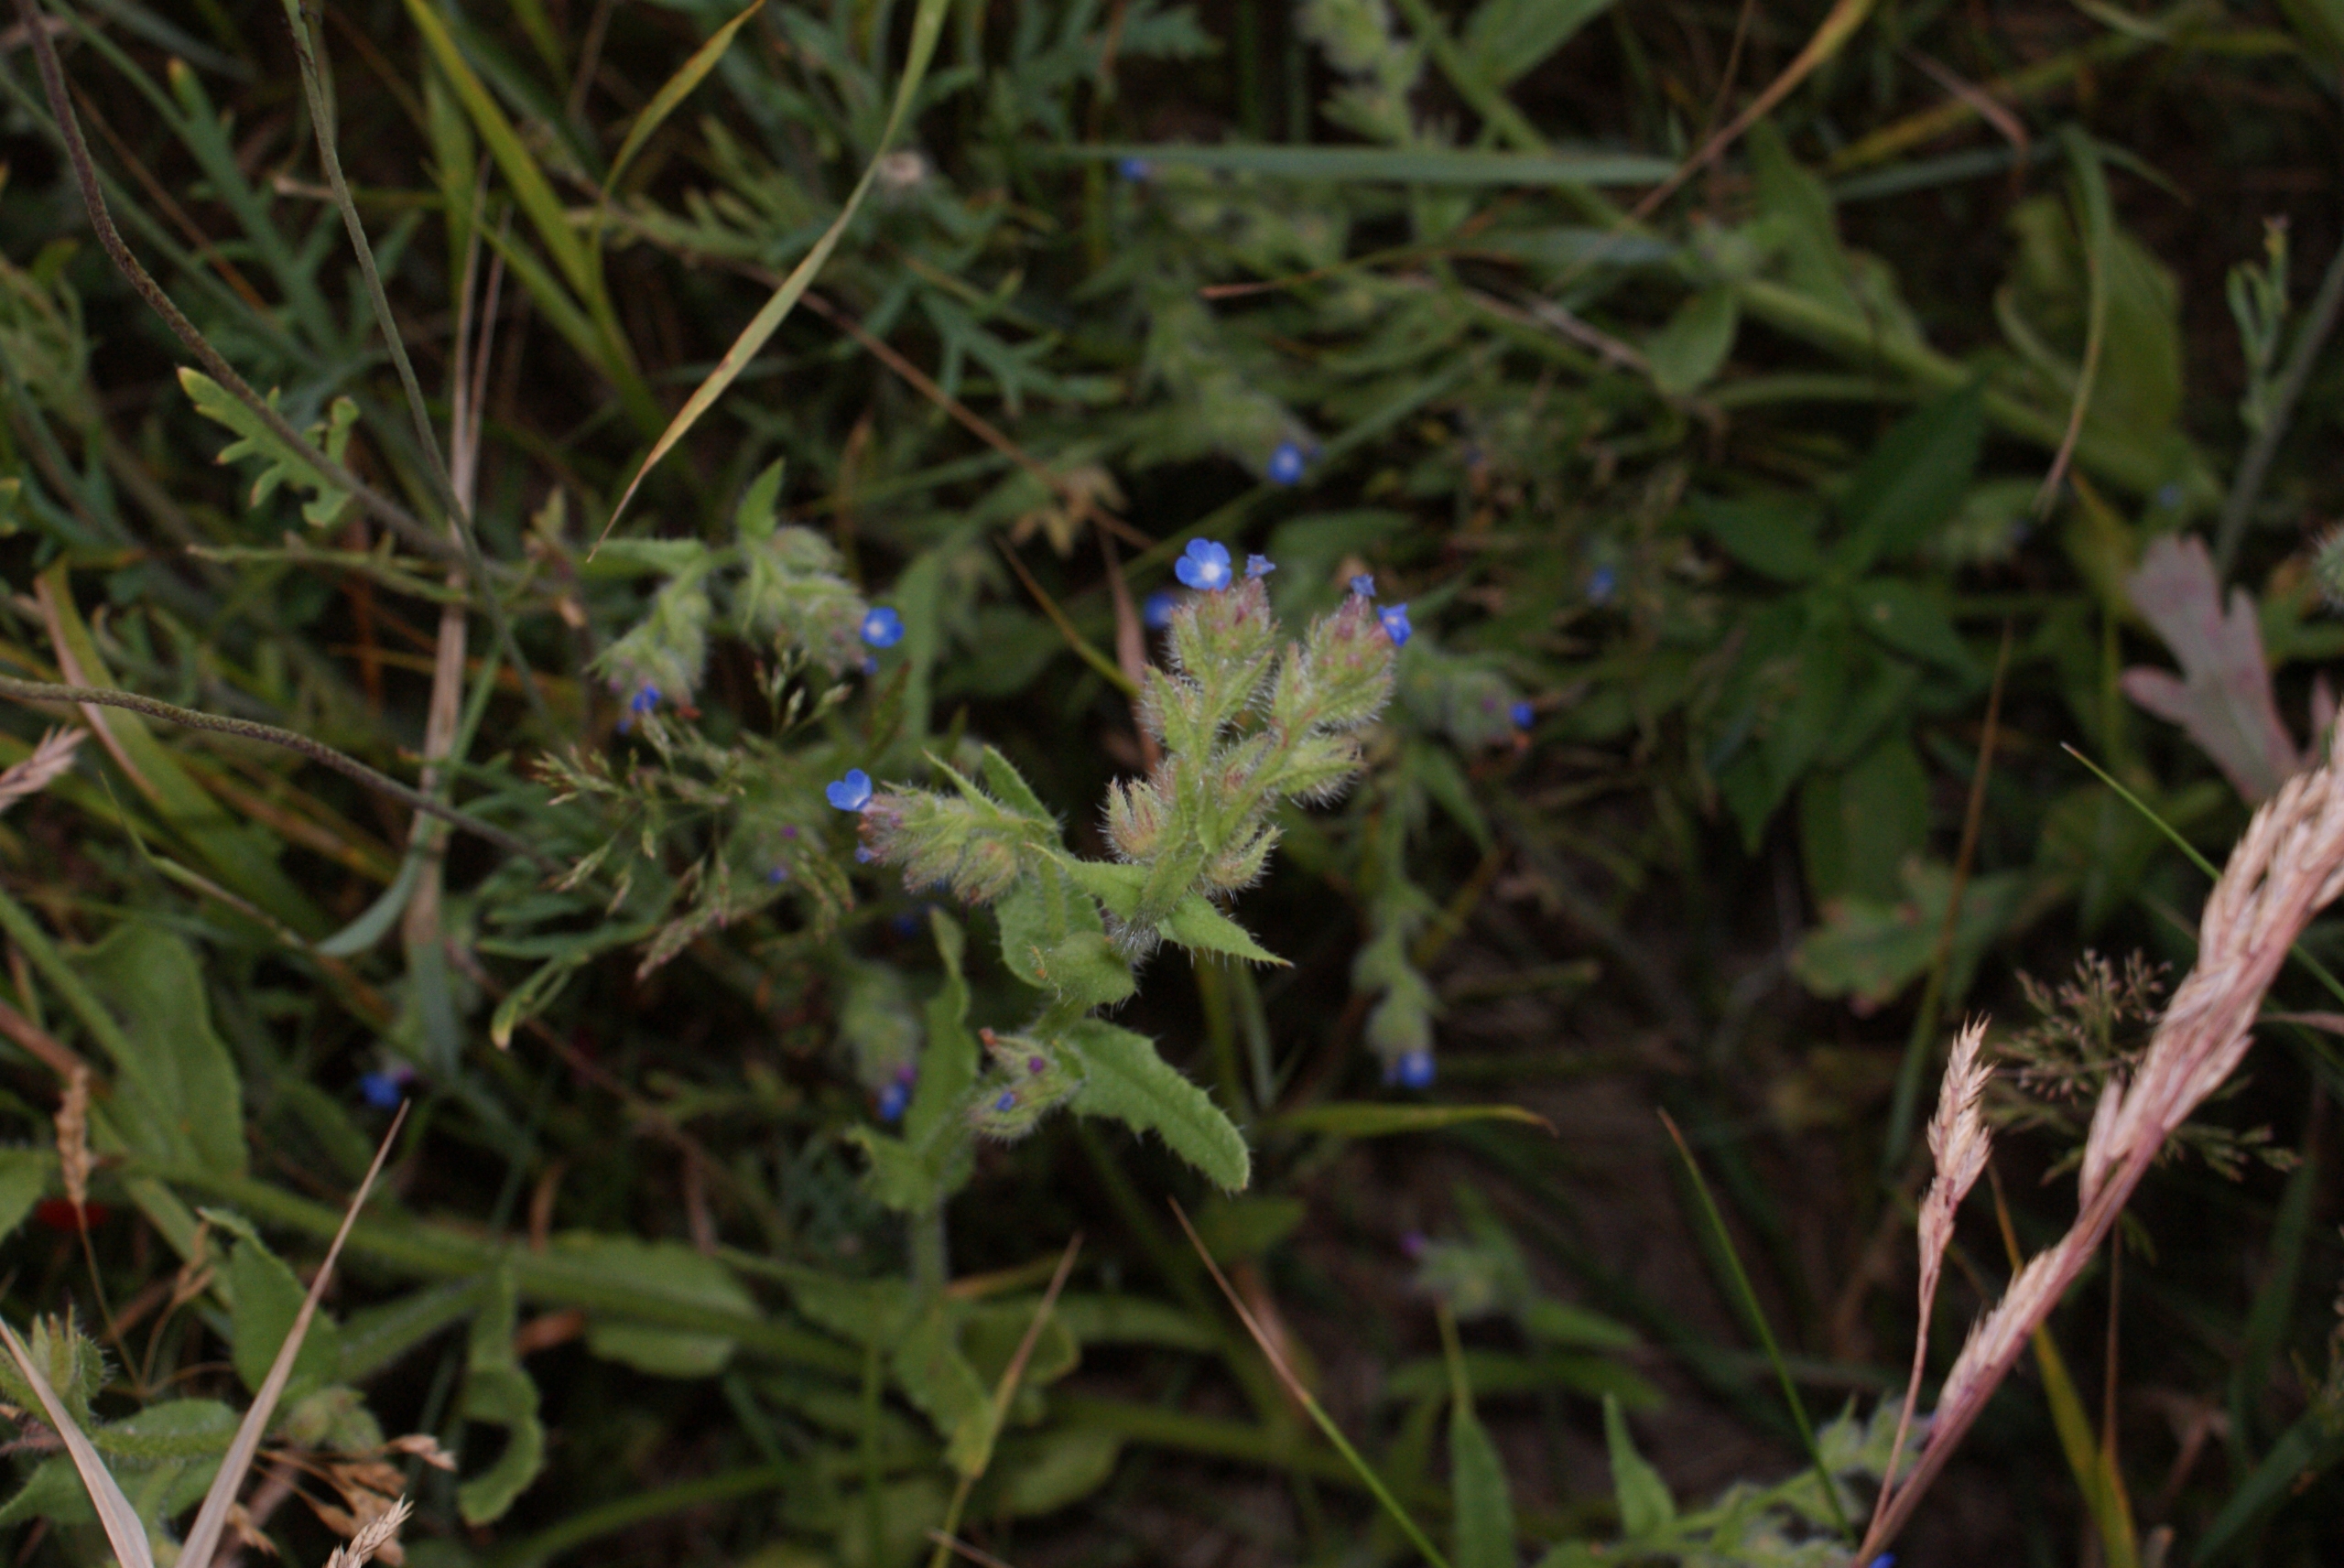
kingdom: Plantae
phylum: Tracheophyta
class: Magnoliopsida
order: Boraginales
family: Boraginaceae
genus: Lycopsis
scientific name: Lycopsis arvensis
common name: Krumhals
